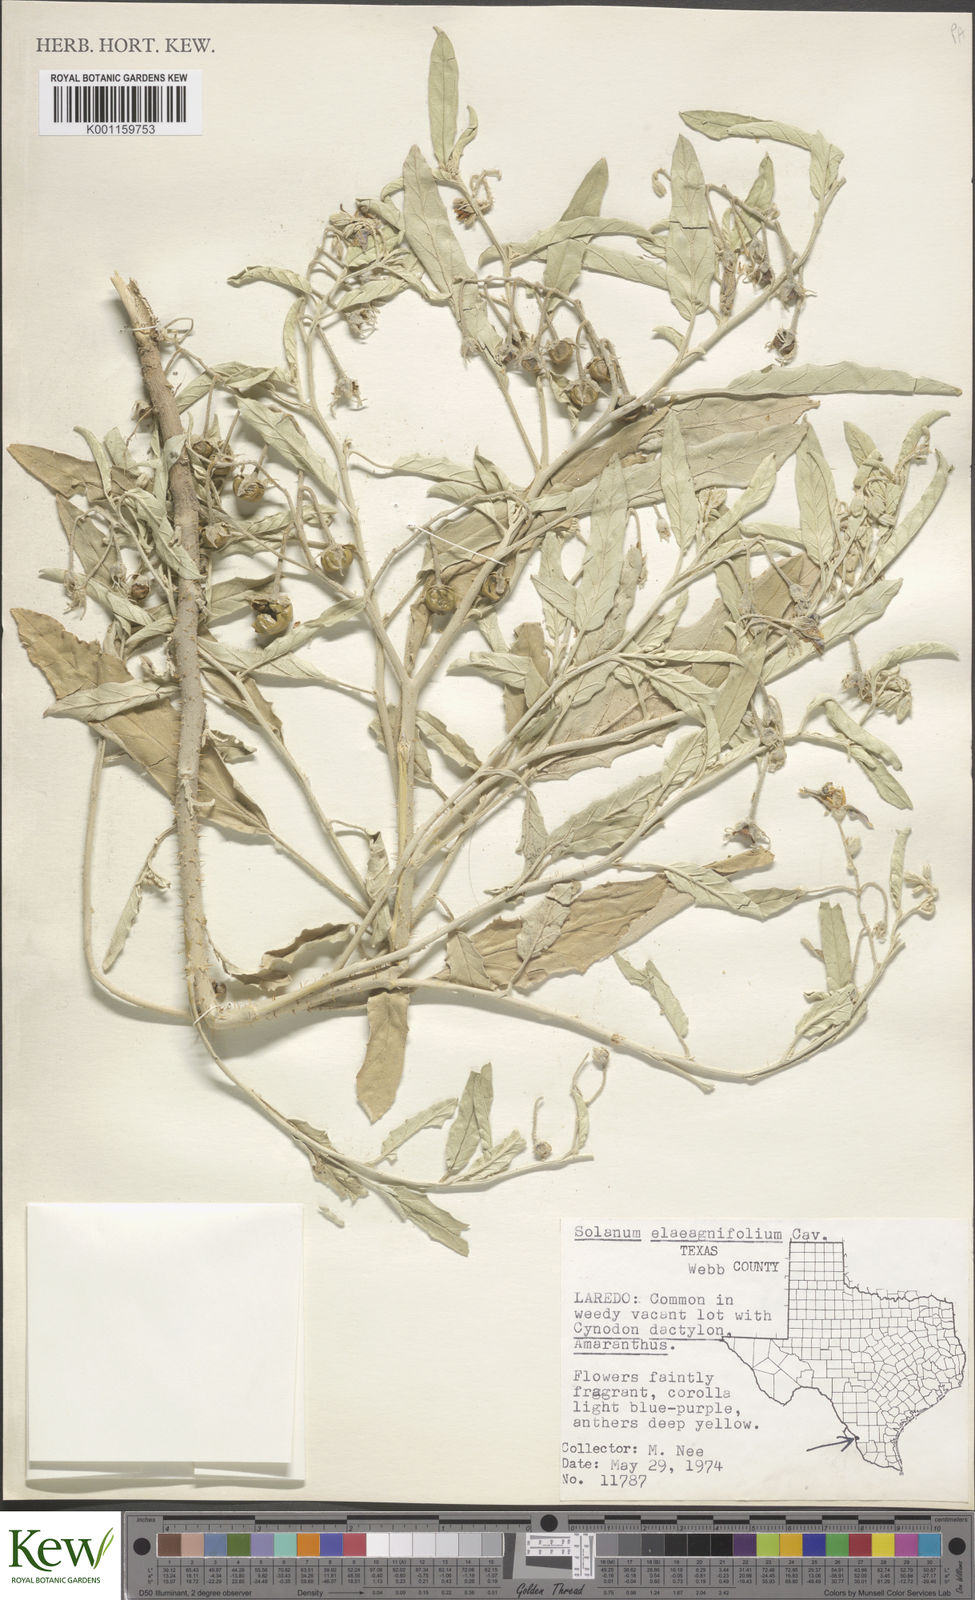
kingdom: Plantae
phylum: Tracheophyta
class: Magnoliopsida
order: Solanales
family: Solanaceae
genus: Solanum
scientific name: Solanum
